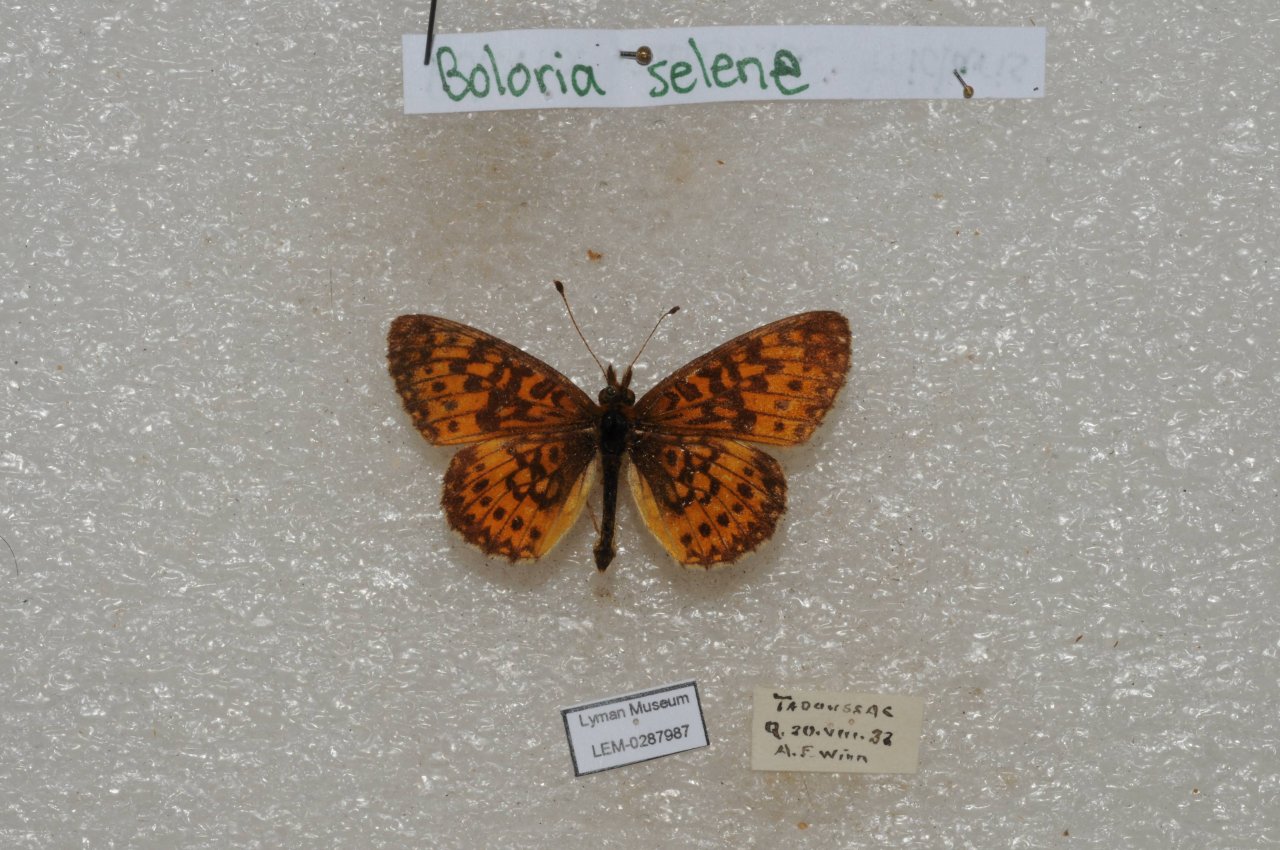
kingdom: Animalia
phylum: Arthropoda
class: Insecta
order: Lepidoptera
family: Nymphalidae
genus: Boloria
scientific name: Boloria selene
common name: Silver-bordered Fritillary
